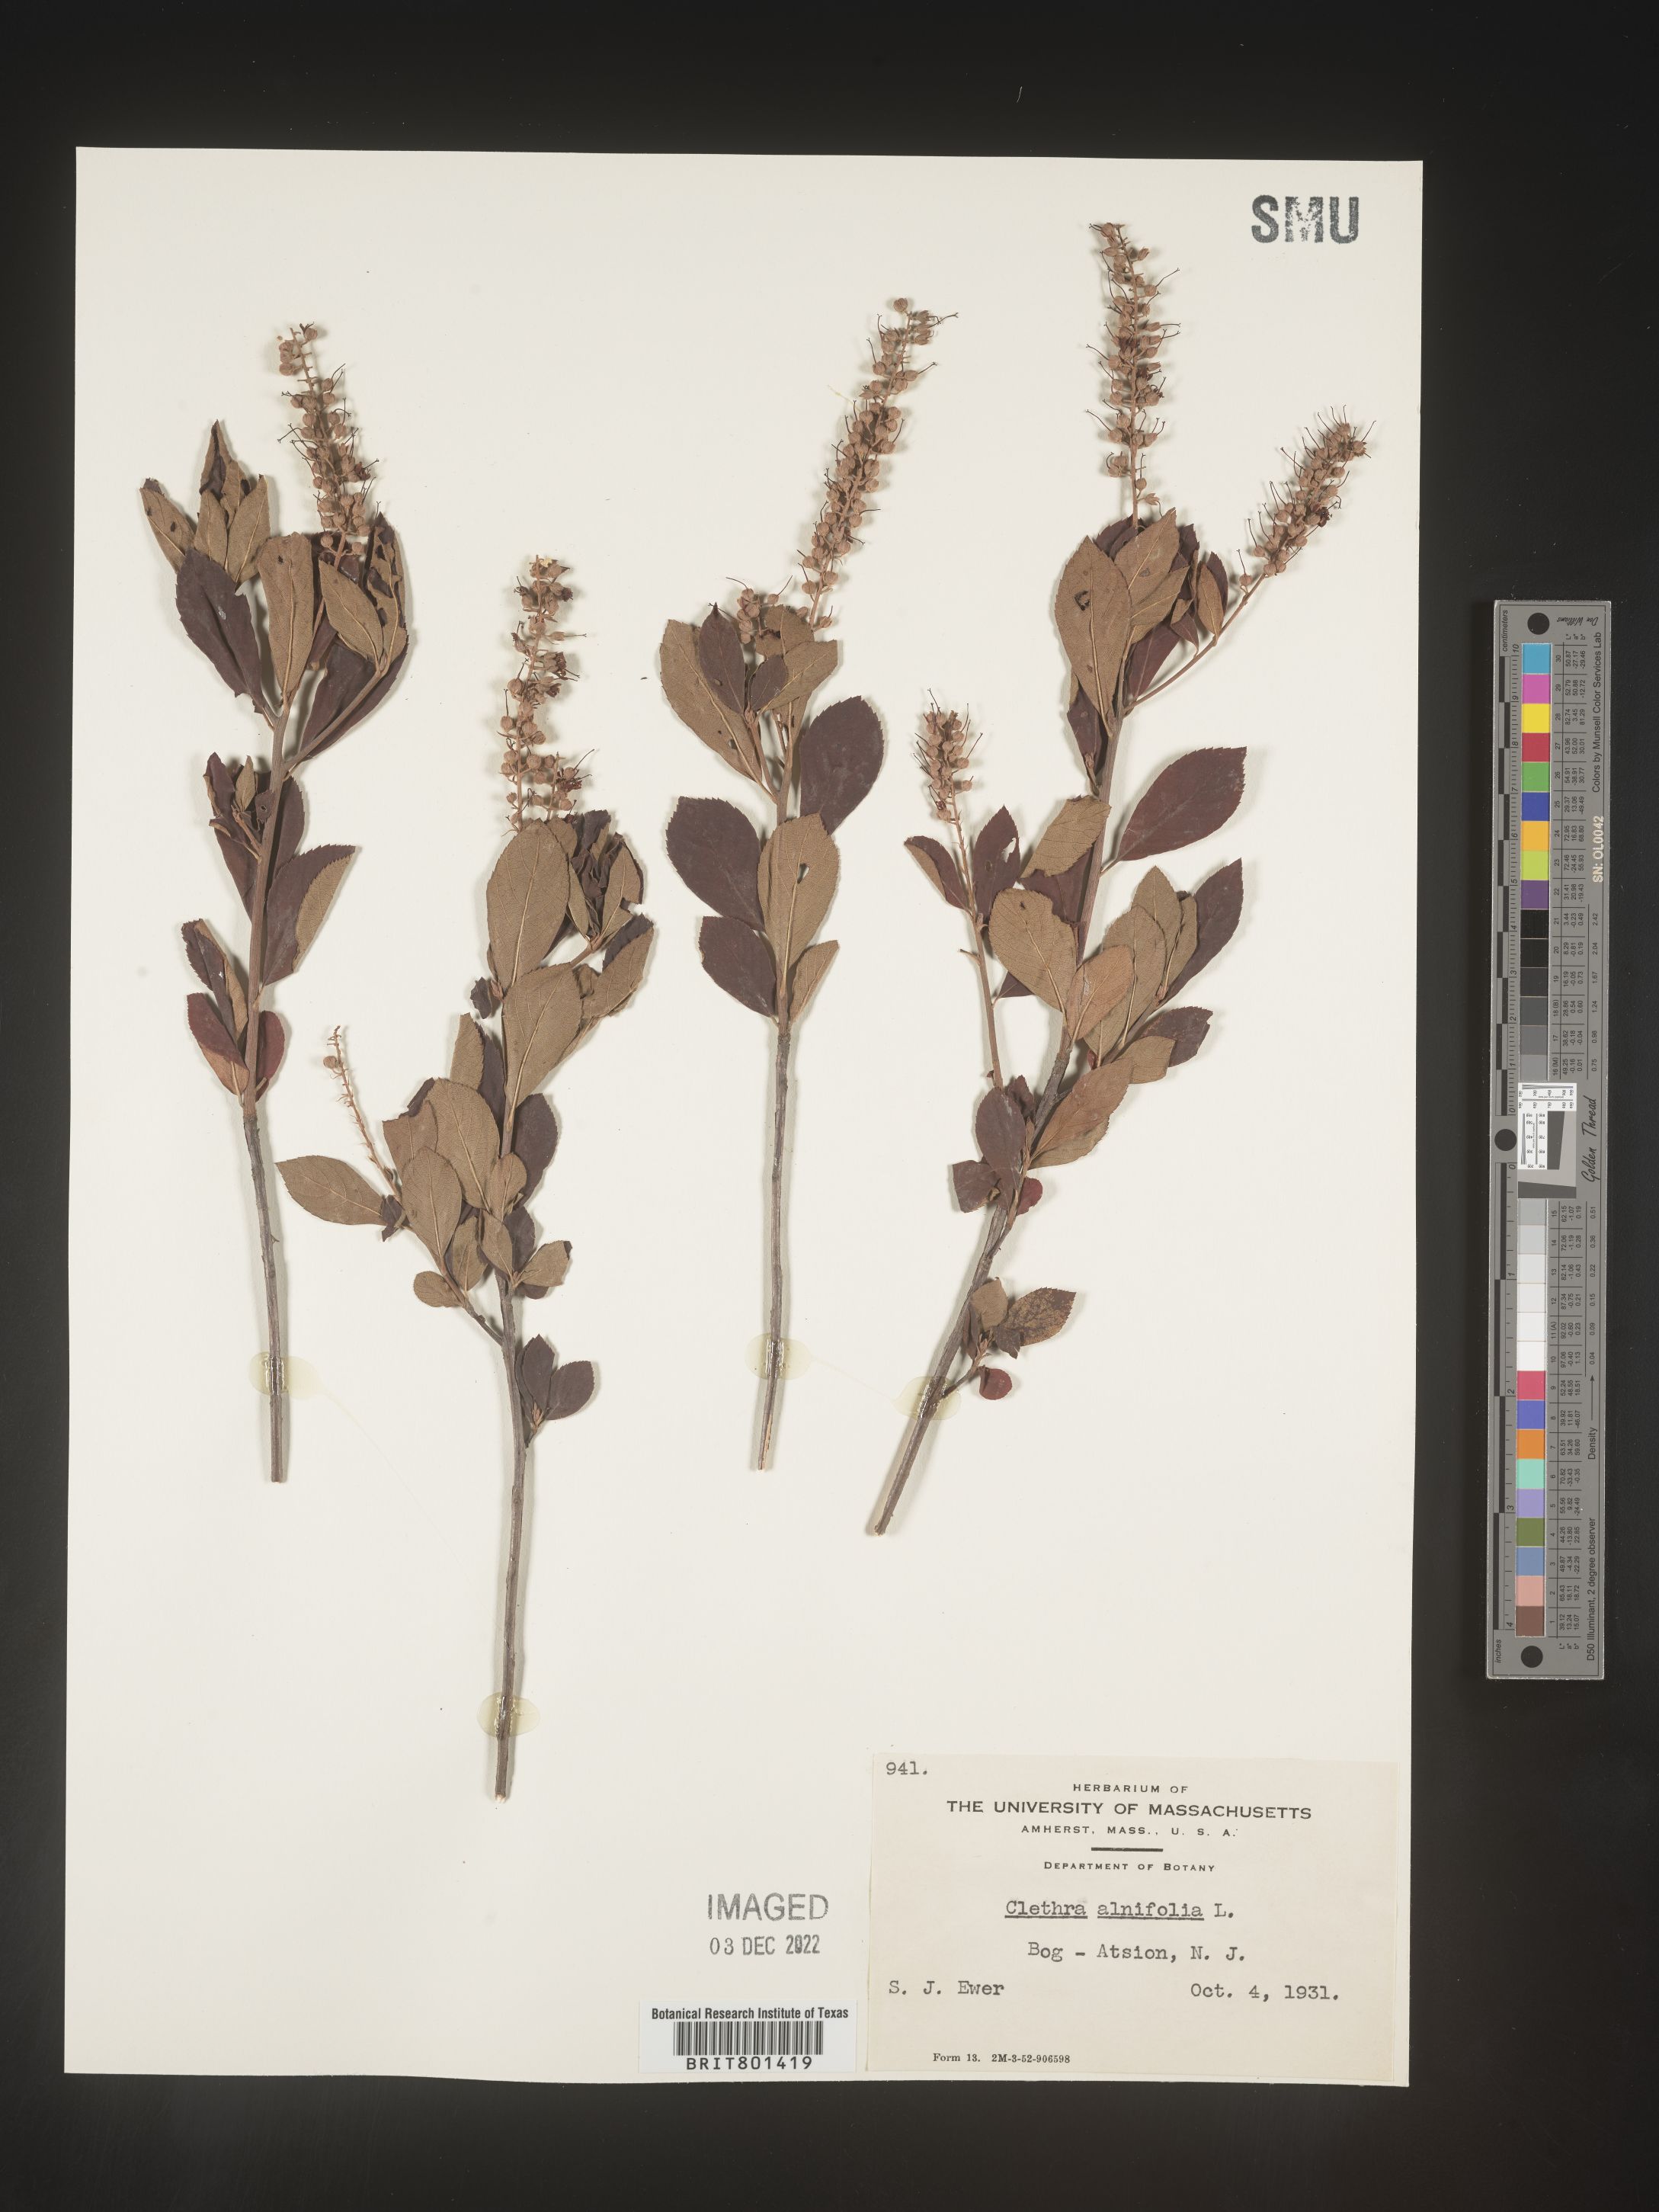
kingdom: Plantae
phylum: Tracheophyta
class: Magnoliopsida
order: Ericales
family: Clethraceae
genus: Clethra
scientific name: Clethra alnifolia
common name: Sweet pepperbush
